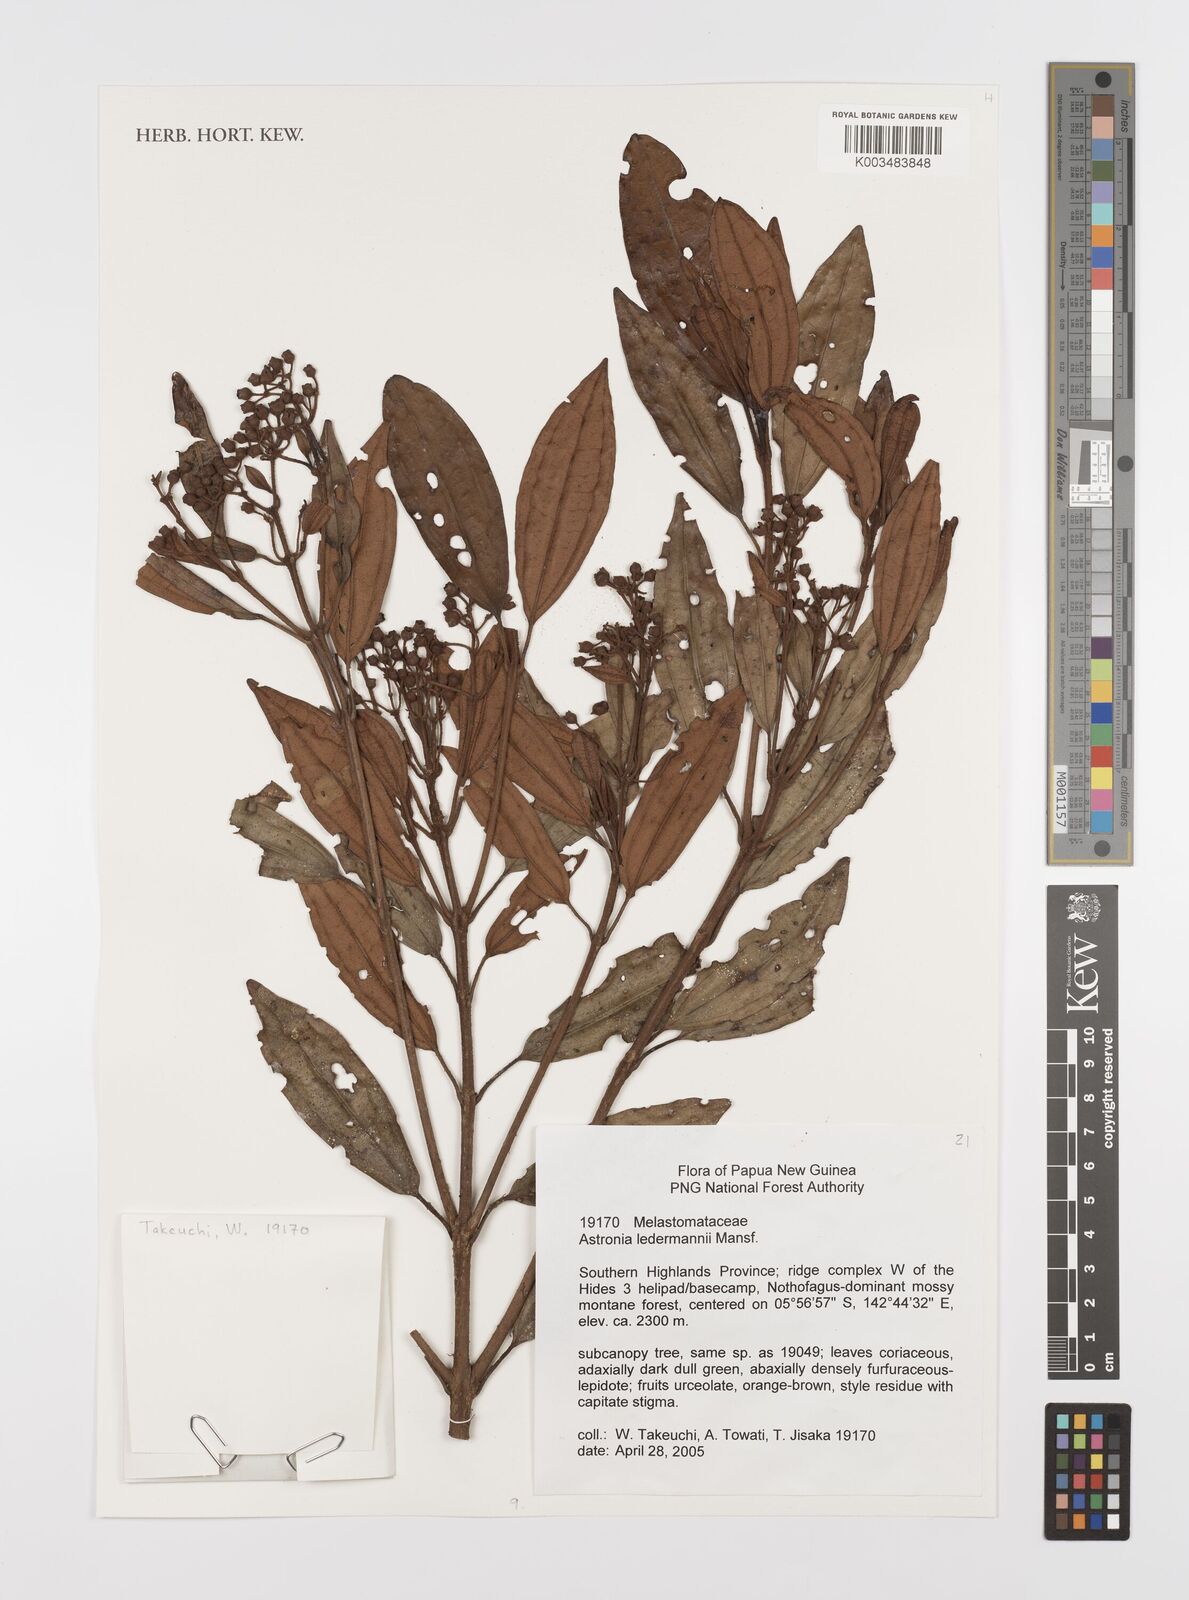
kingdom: Plantae
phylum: Tracheophyta
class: Magnoliopsida
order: Myrtales
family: Melastomataceae
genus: Astronia
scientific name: Astronia ledermannii
